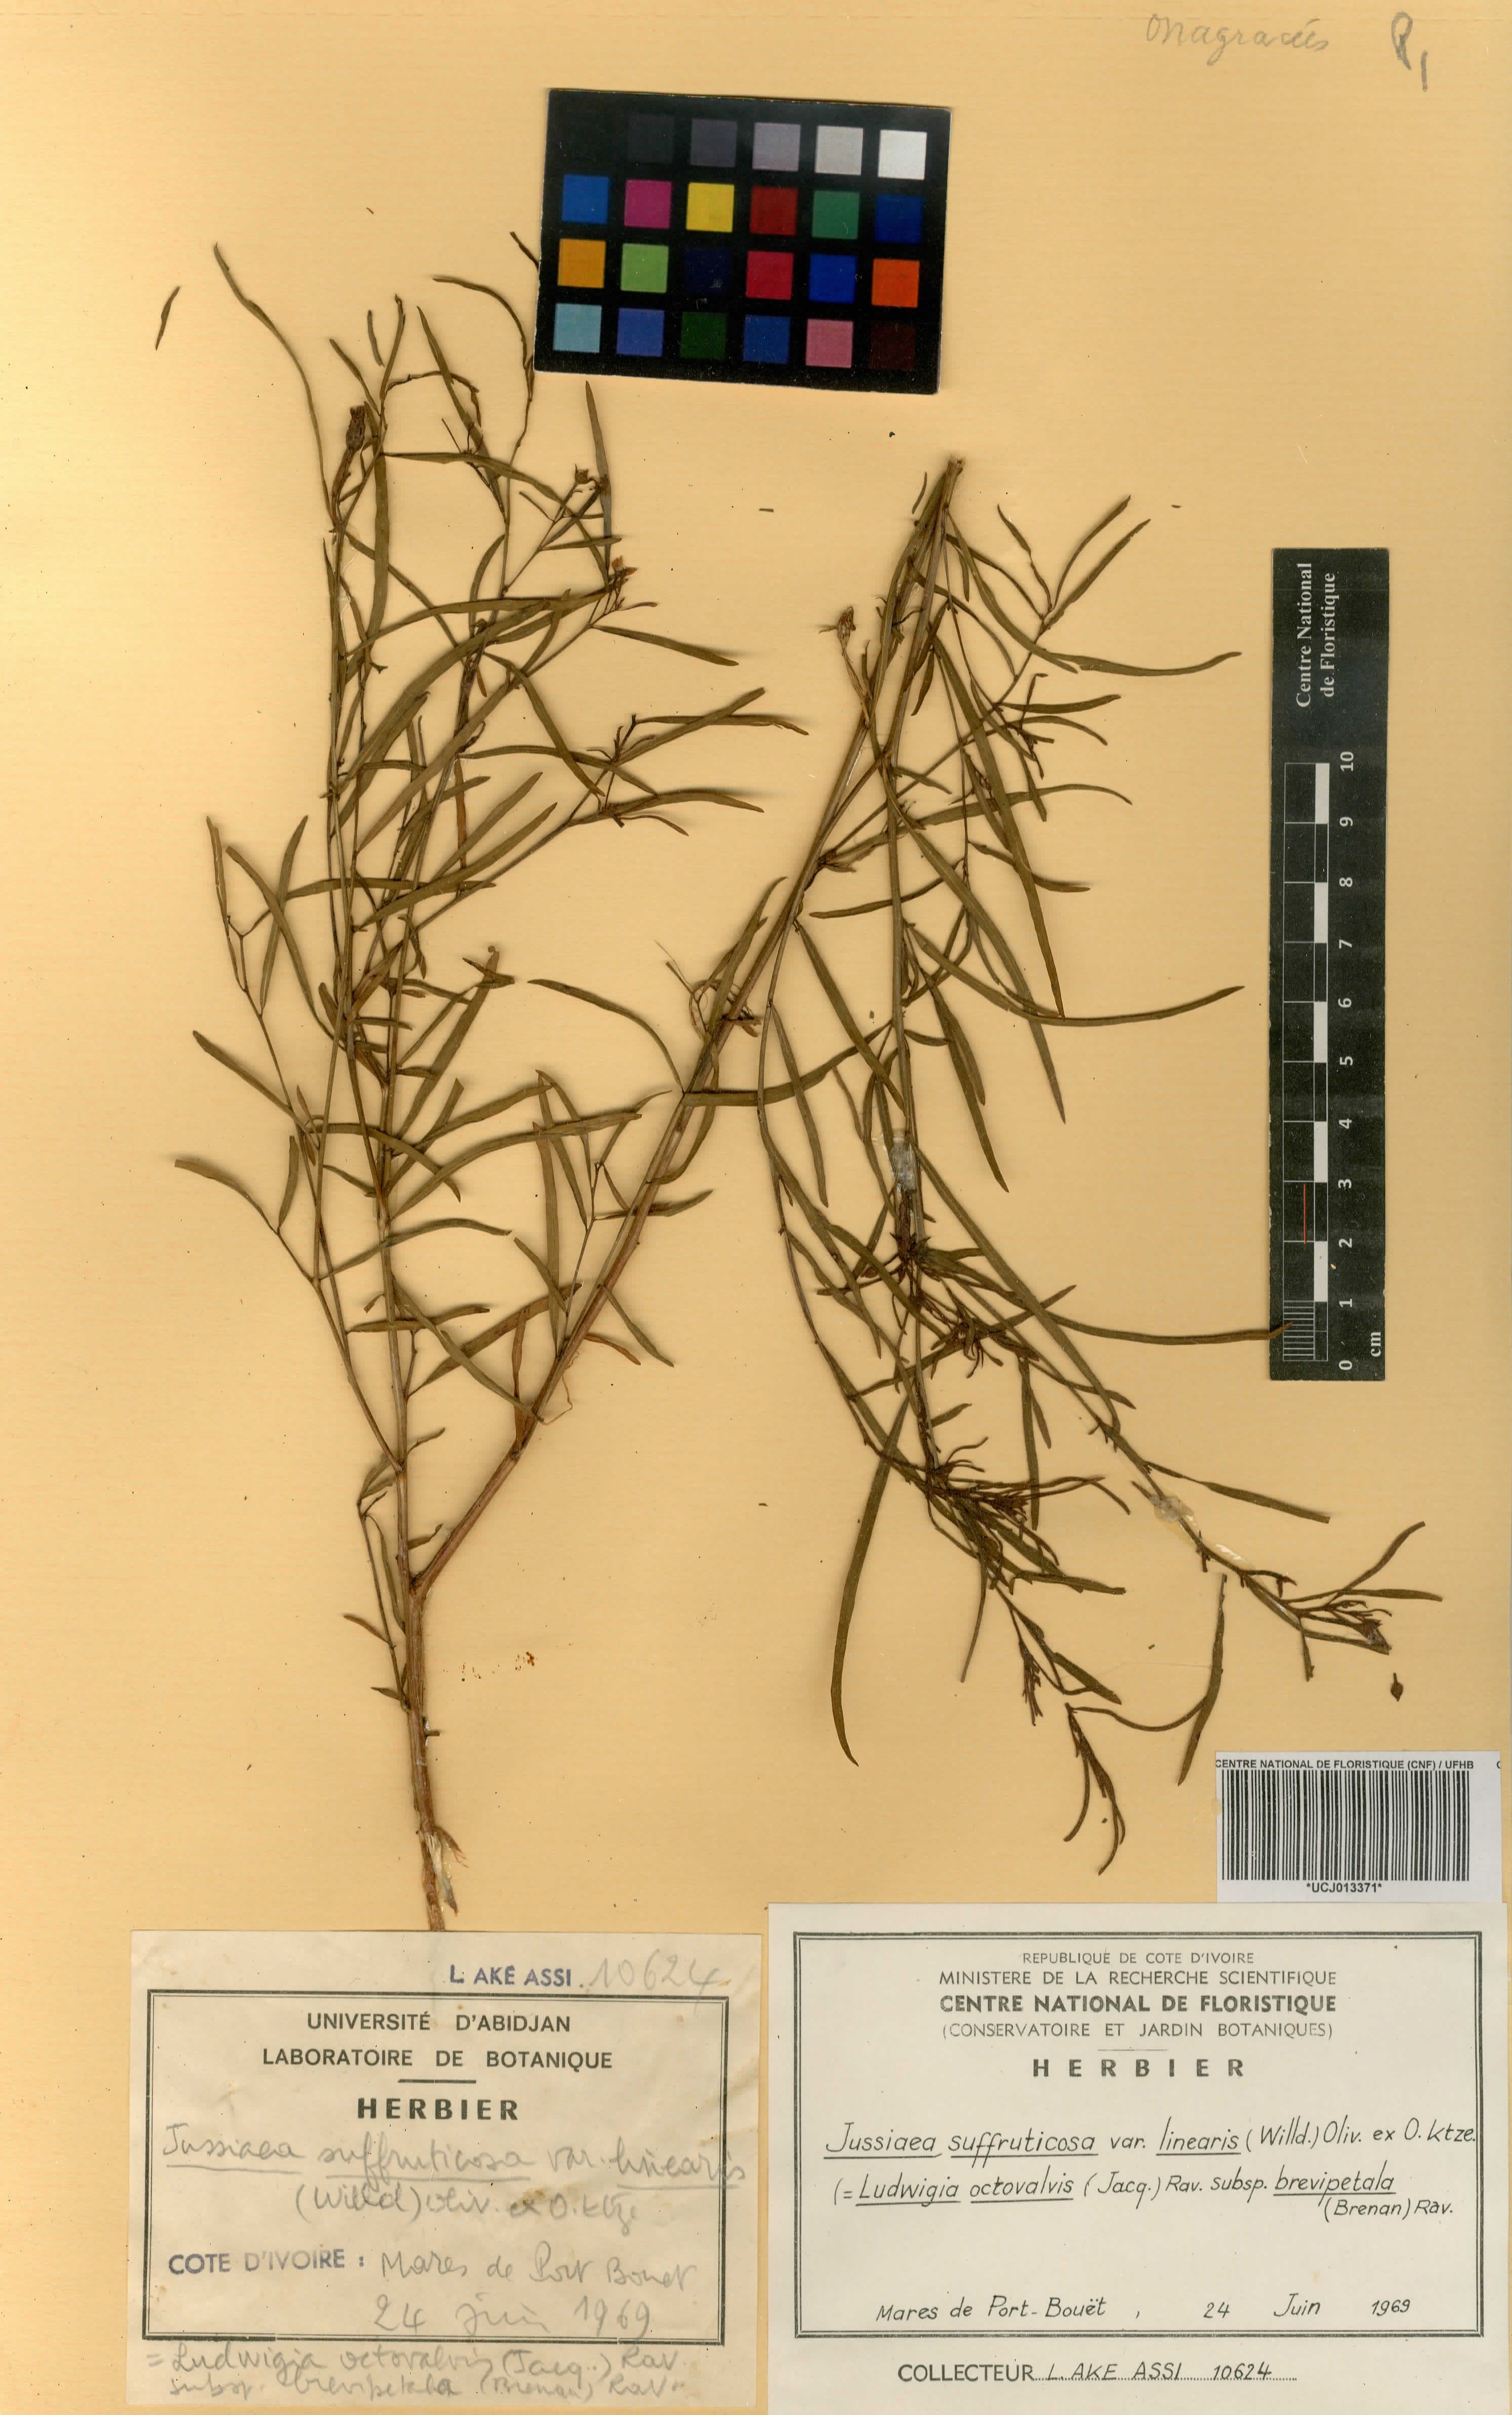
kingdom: Plantae
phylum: Tracheophyta
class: Magnoliopsida
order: Myrtales
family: Onagraceae
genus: Ludwigia
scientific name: Ludwigia octovalvis
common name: Water-primrose
